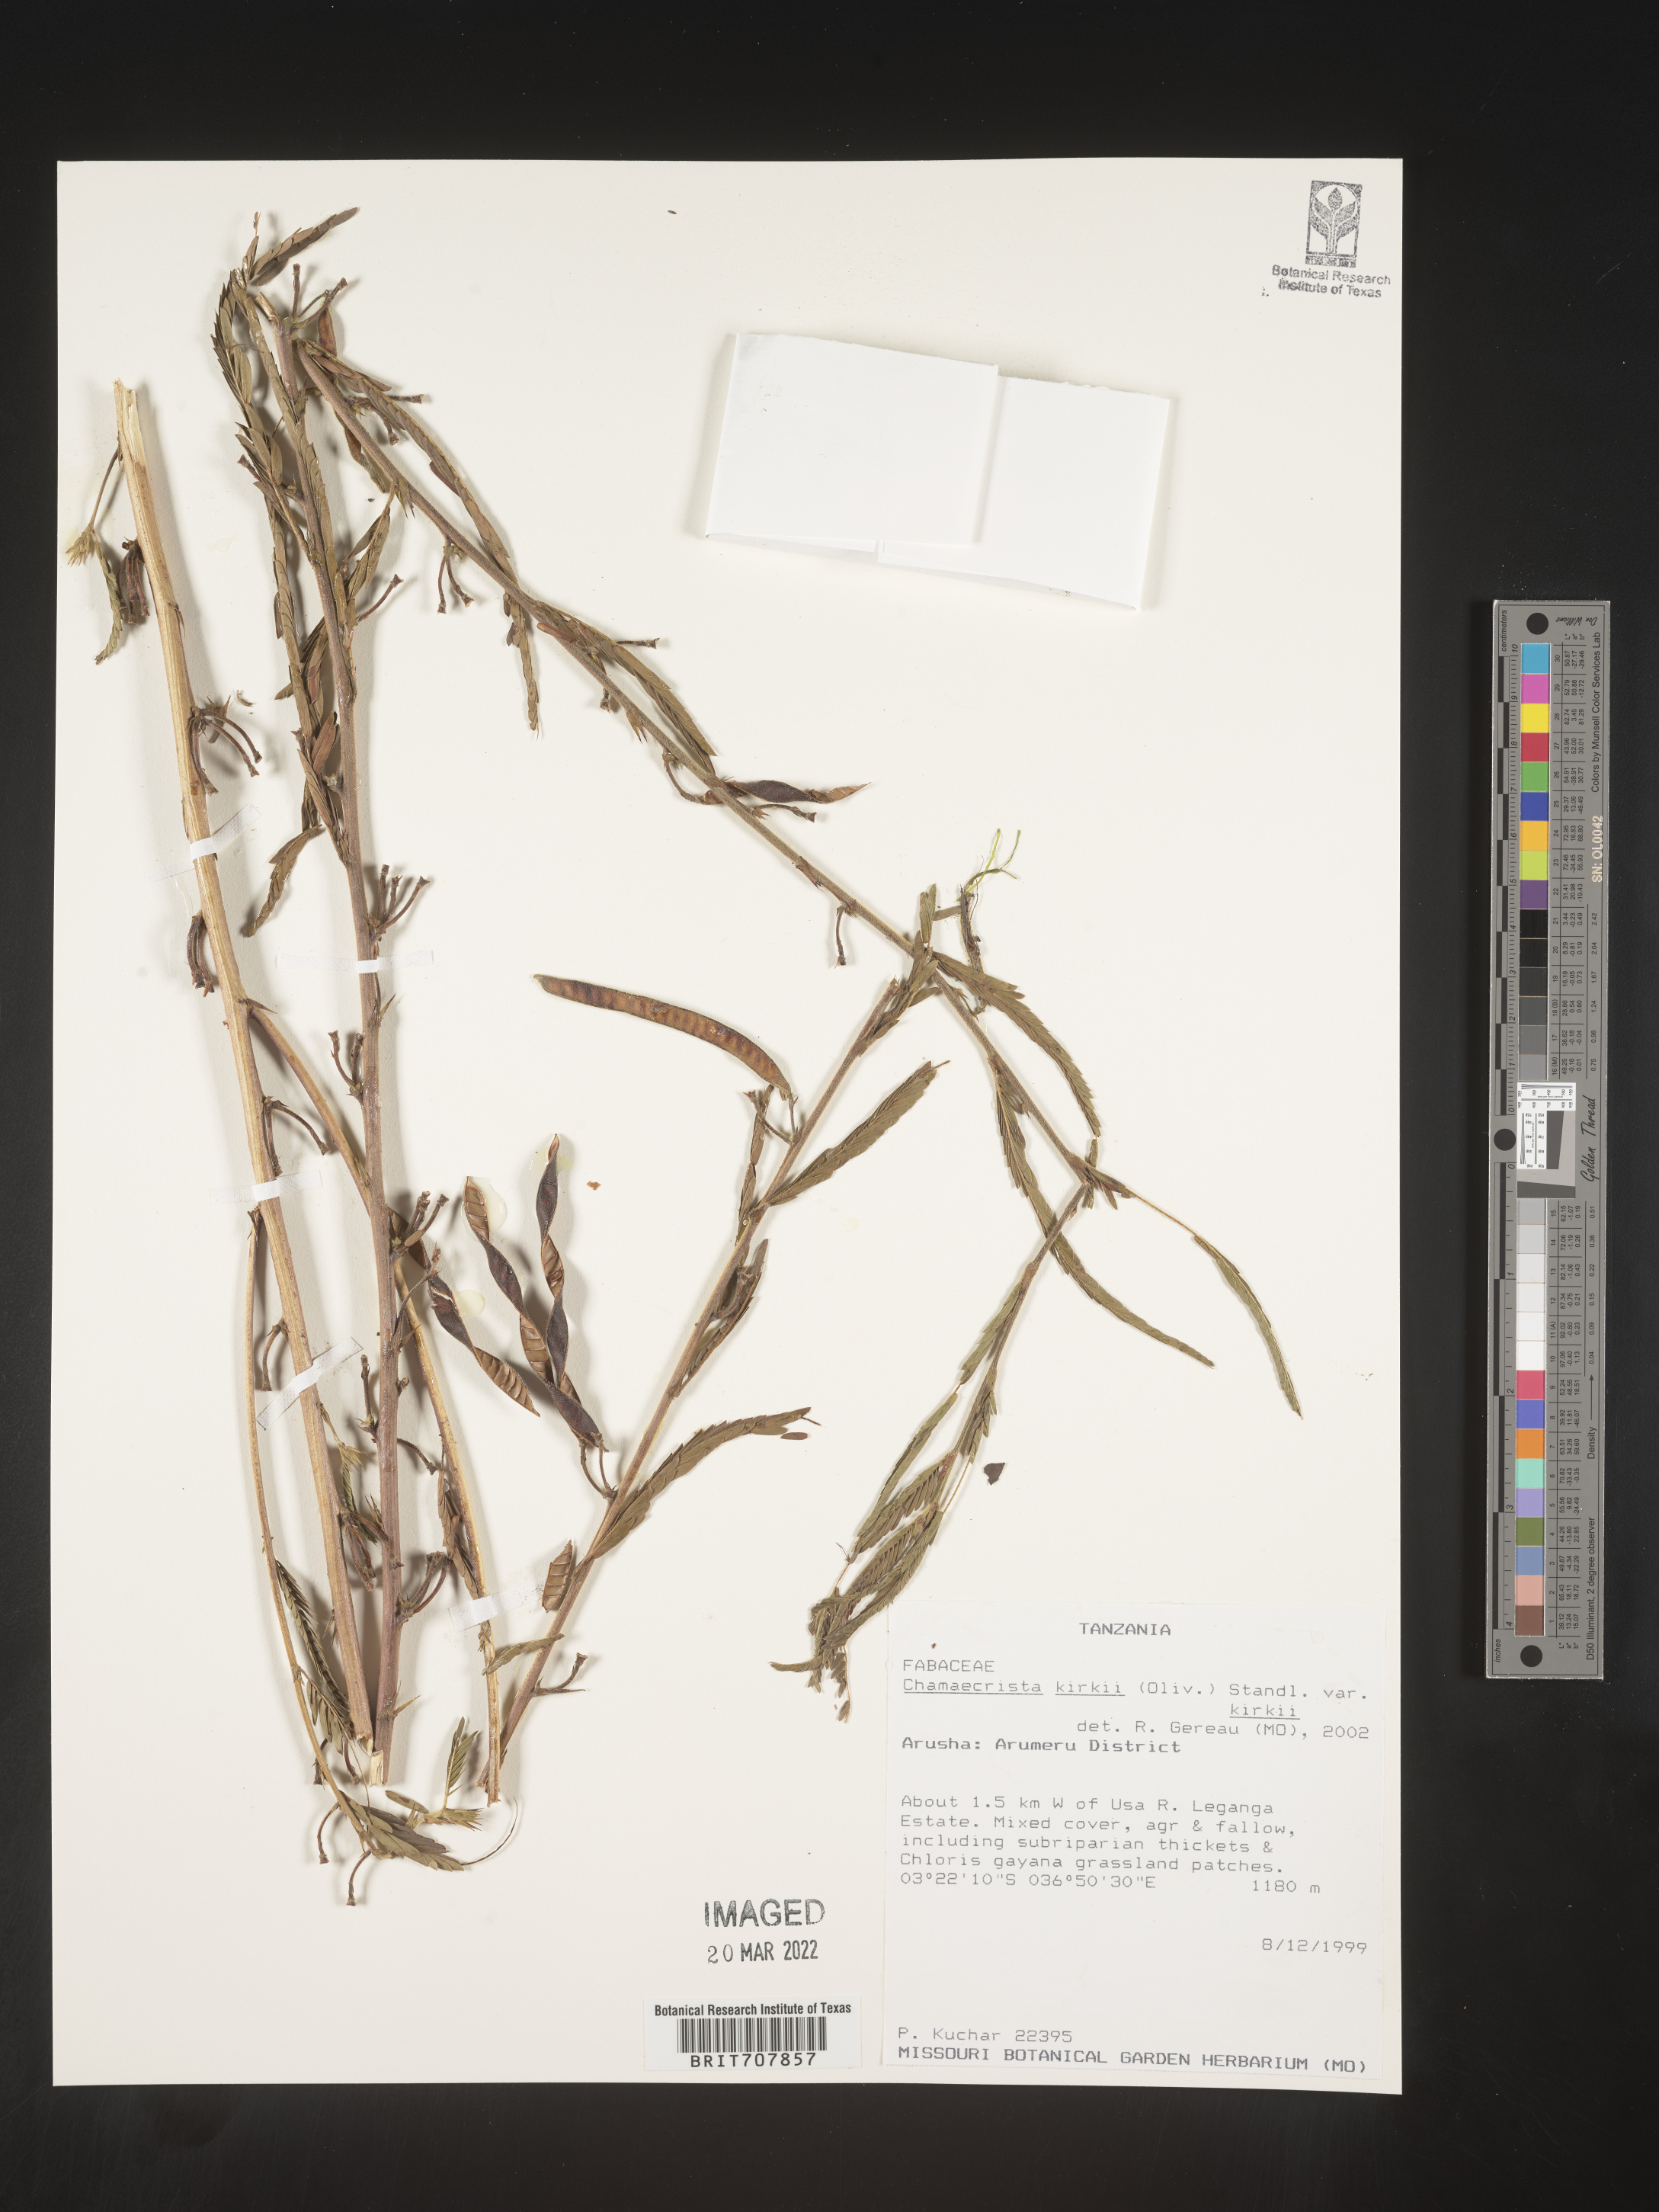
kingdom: Plantae
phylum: Tracheophyta
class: Magnoliopsida
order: Fabales
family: Fabaceae
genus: Chamaecrista
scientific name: Chamaecrista
